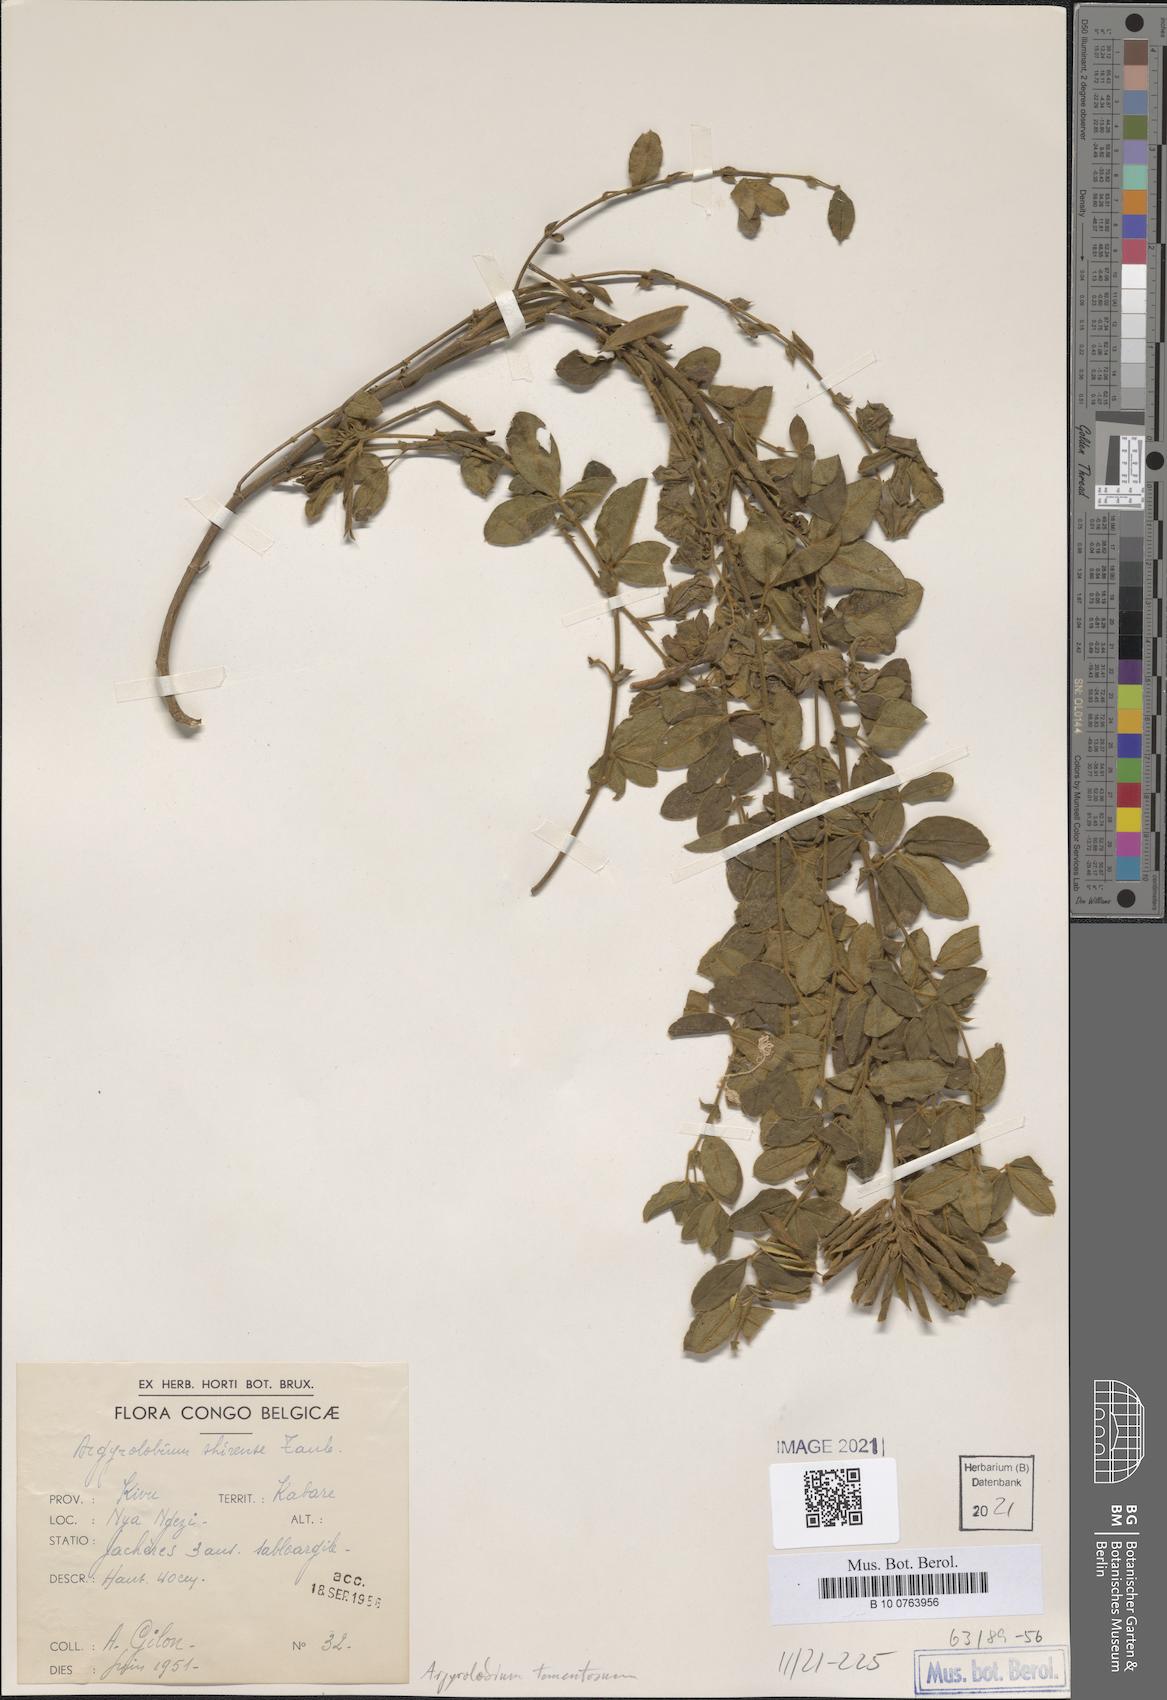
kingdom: Plantae
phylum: Tracheophyta
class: Magnoliopsida
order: Fabales
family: Fabaceae
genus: Argyrolobium
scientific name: Argyrolobium tomentosum
